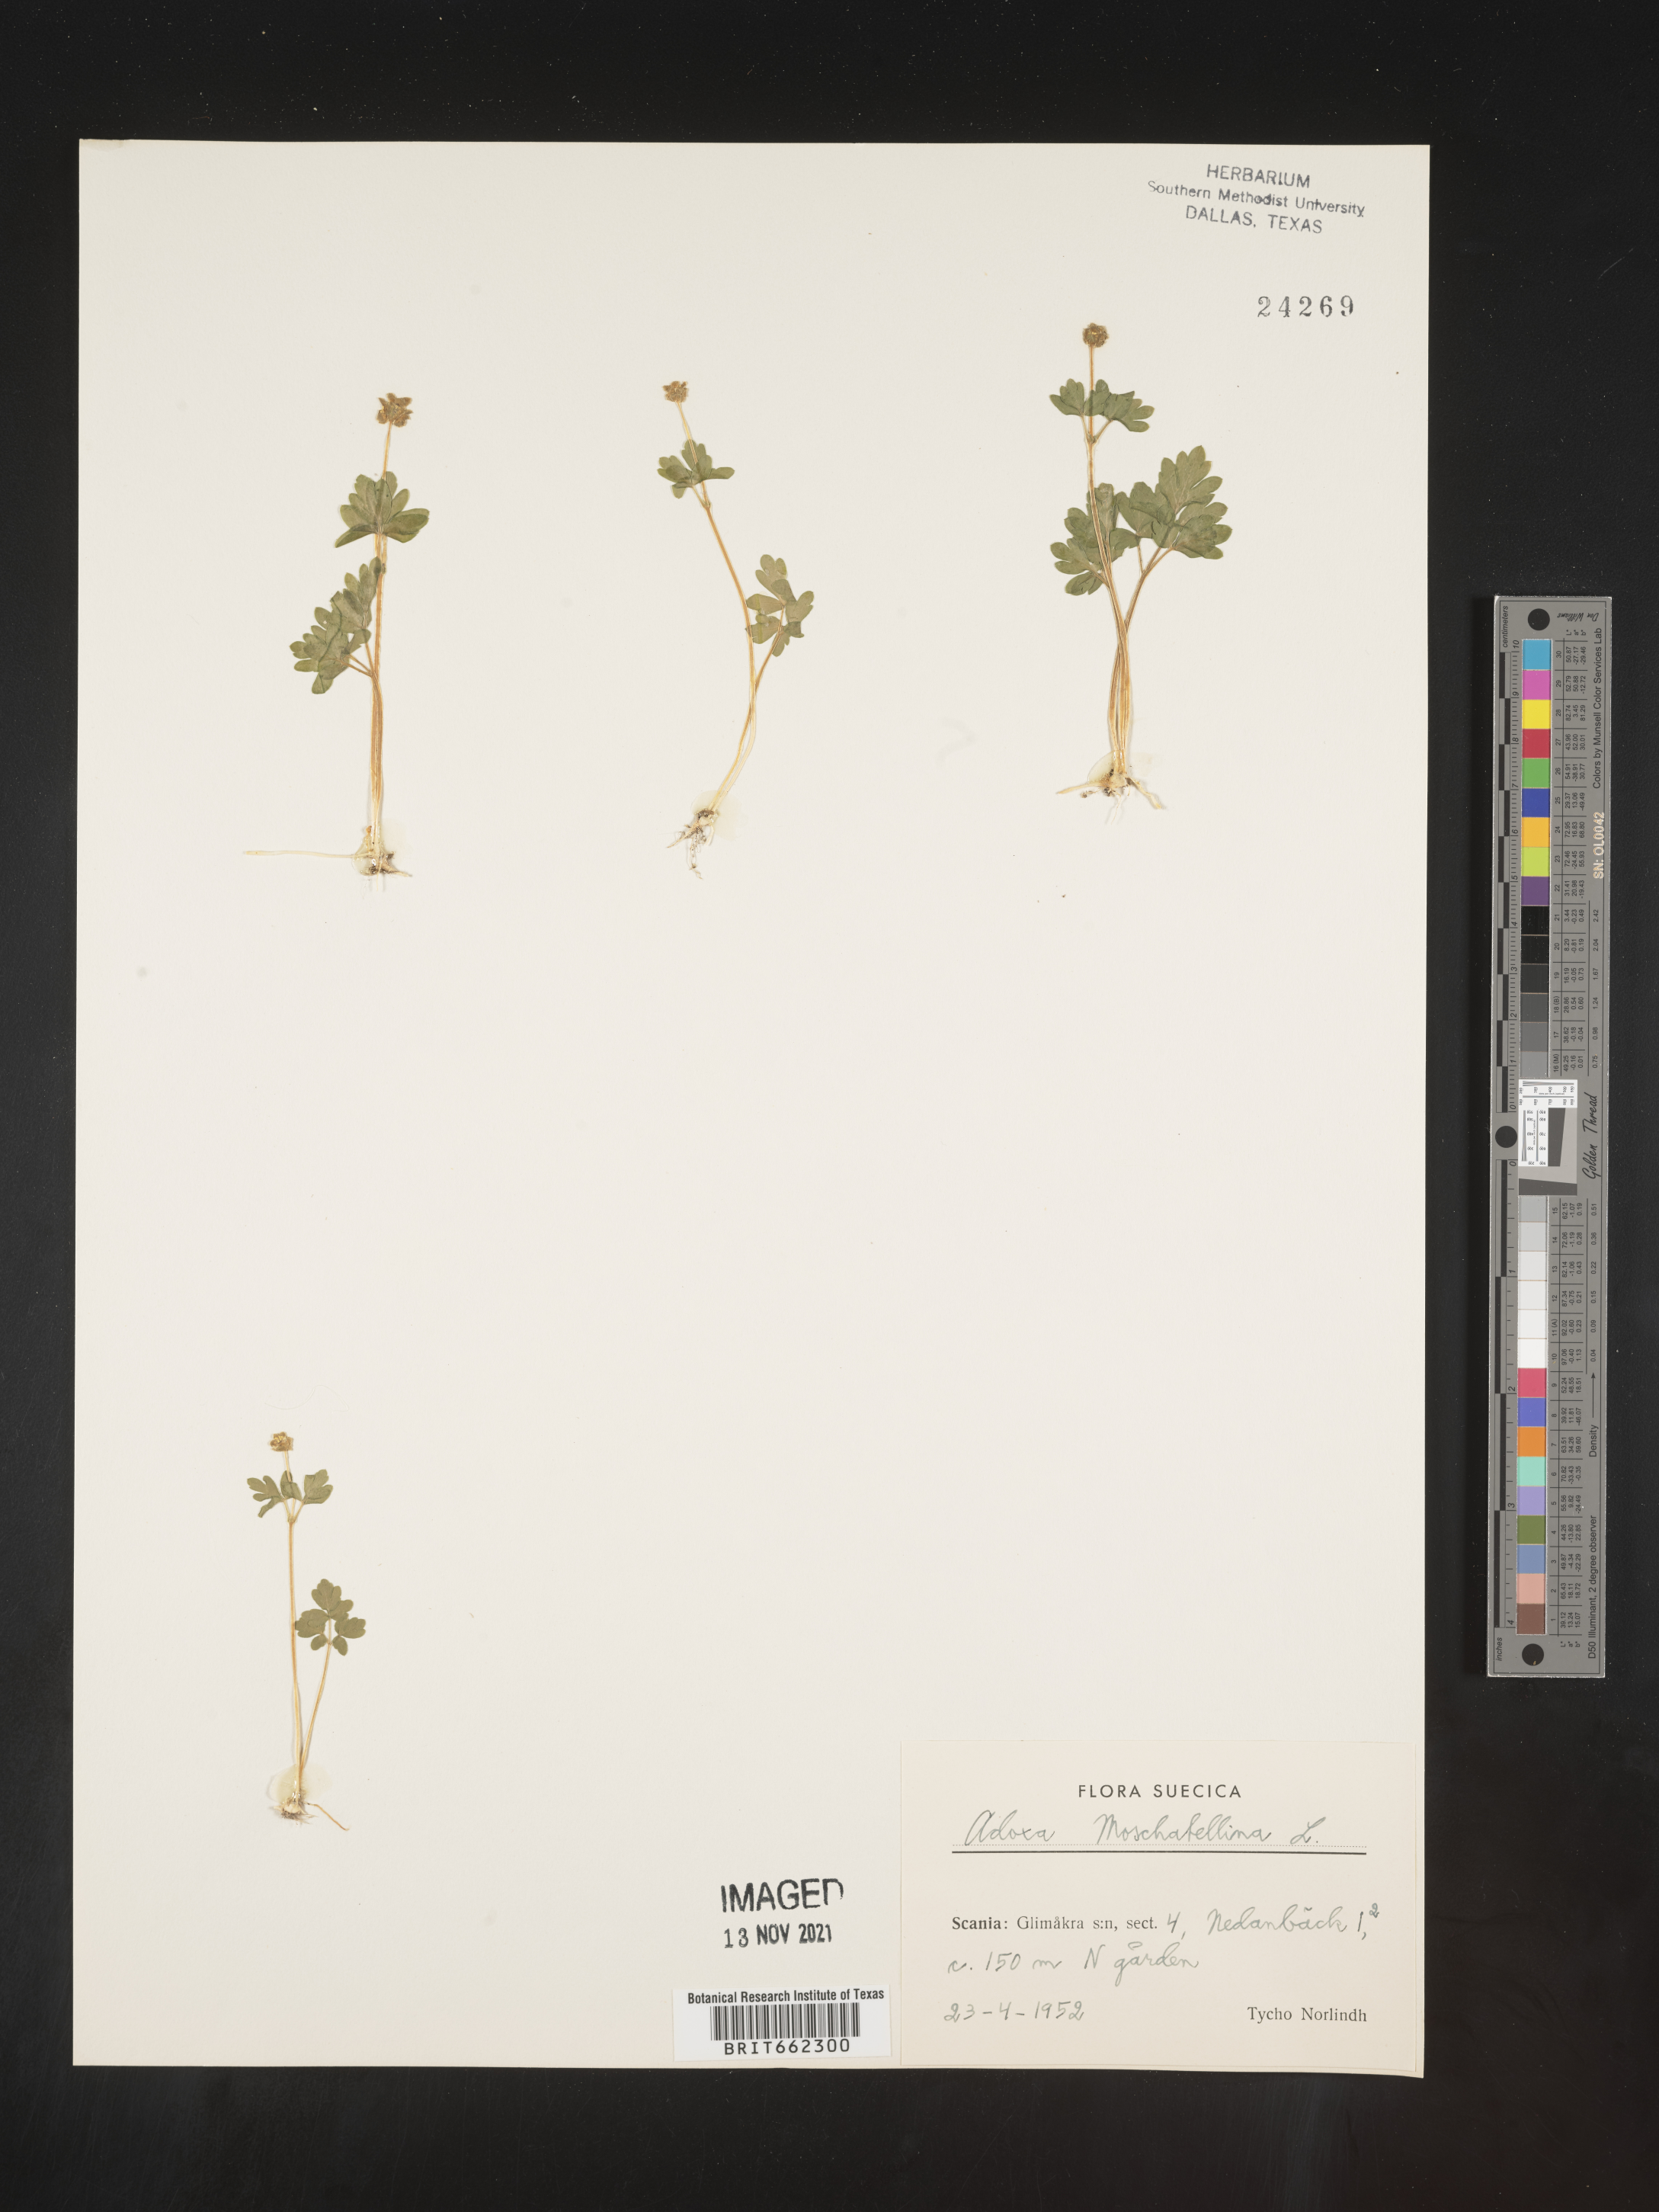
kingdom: Plantae
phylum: Tracheophyta
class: Magnoliopsida
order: Dipsacales
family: Viburnaceae
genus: Adoxa
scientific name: Adoxa
